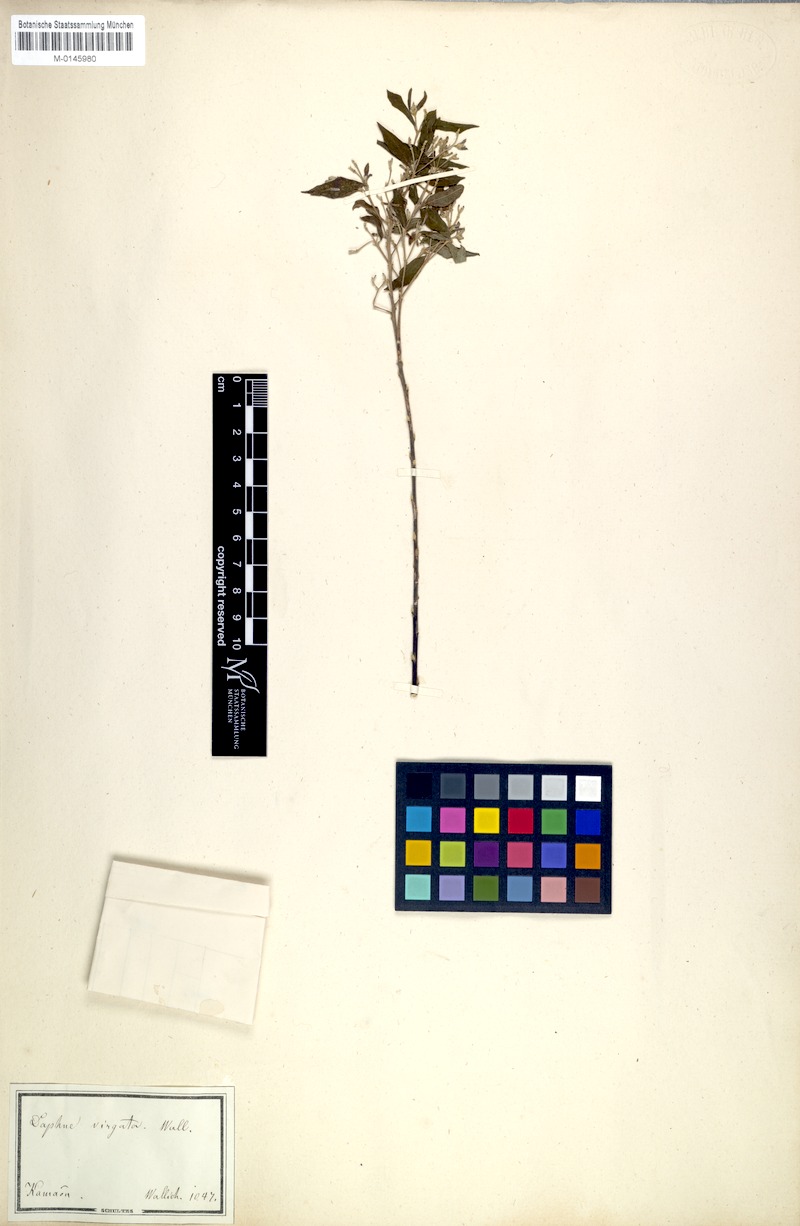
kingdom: Plantae
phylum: Tracheophyta
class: Magnoliopsida
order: Malvales
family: Thymelaeaceae
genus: Wikstroemia
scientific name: Wikstroemia canescens
